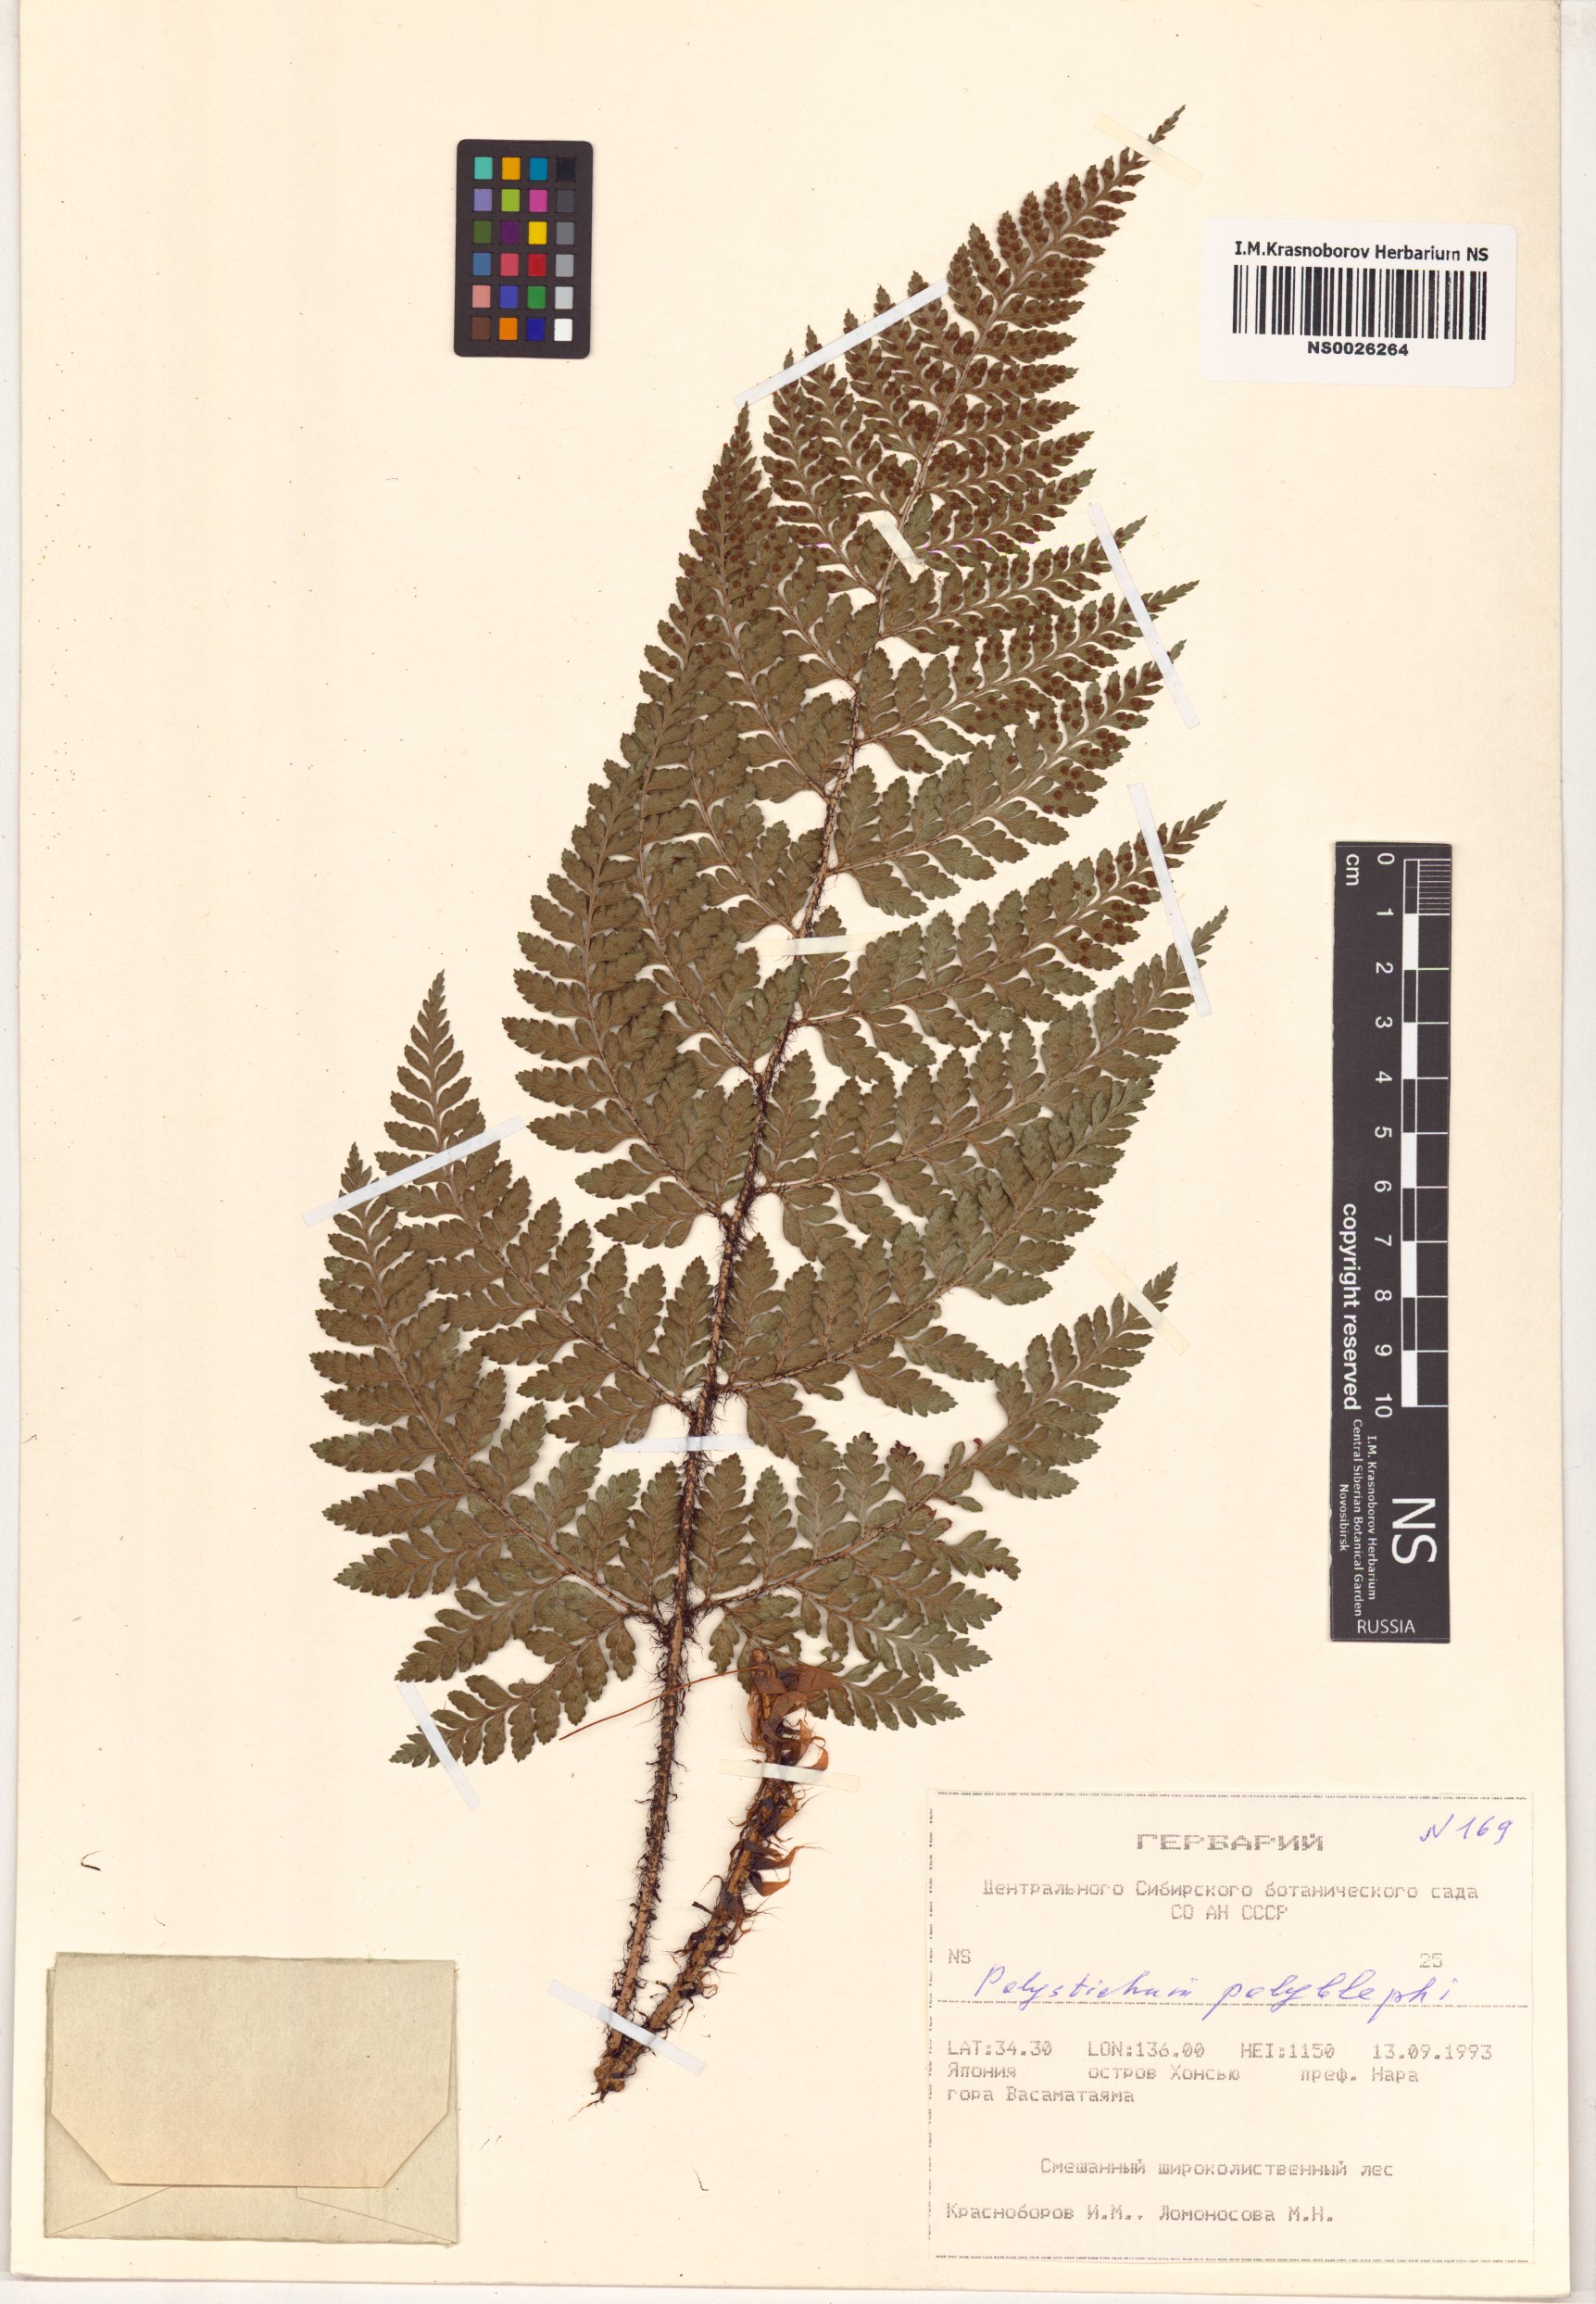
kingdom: Plantae
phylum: Tracheophyta
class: Polypodiopsida
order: Polypodiales
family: Dryopteridaceae
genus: Polystichum
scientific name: Polystichum polyblepharon
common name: Korean tasselfern
